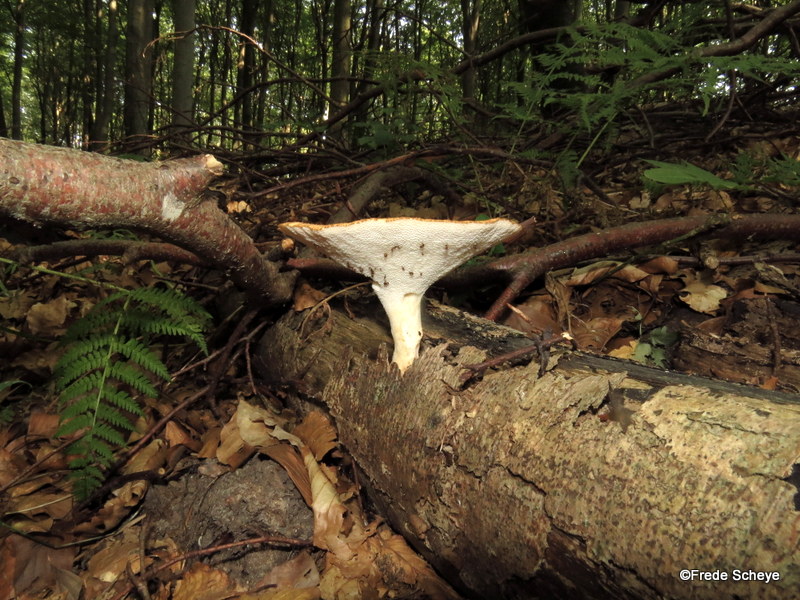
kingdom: Fungi
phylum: Basidiomycota
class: Agaricomycetes
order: Polyporales
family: Polyporaceae
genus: Polyporus
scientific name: Polyporus tuberaster
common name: knoldet stilkporesvamp
